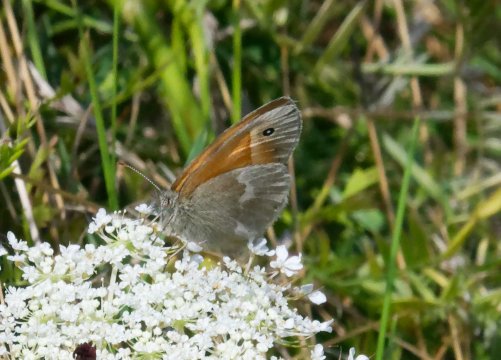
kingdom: Animalia
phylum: Arthropoda
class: Insecta
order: Lepidoptera
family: Nymphalidae
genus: Coenonympha
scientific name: Coenonympha california
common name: California Ringlet
